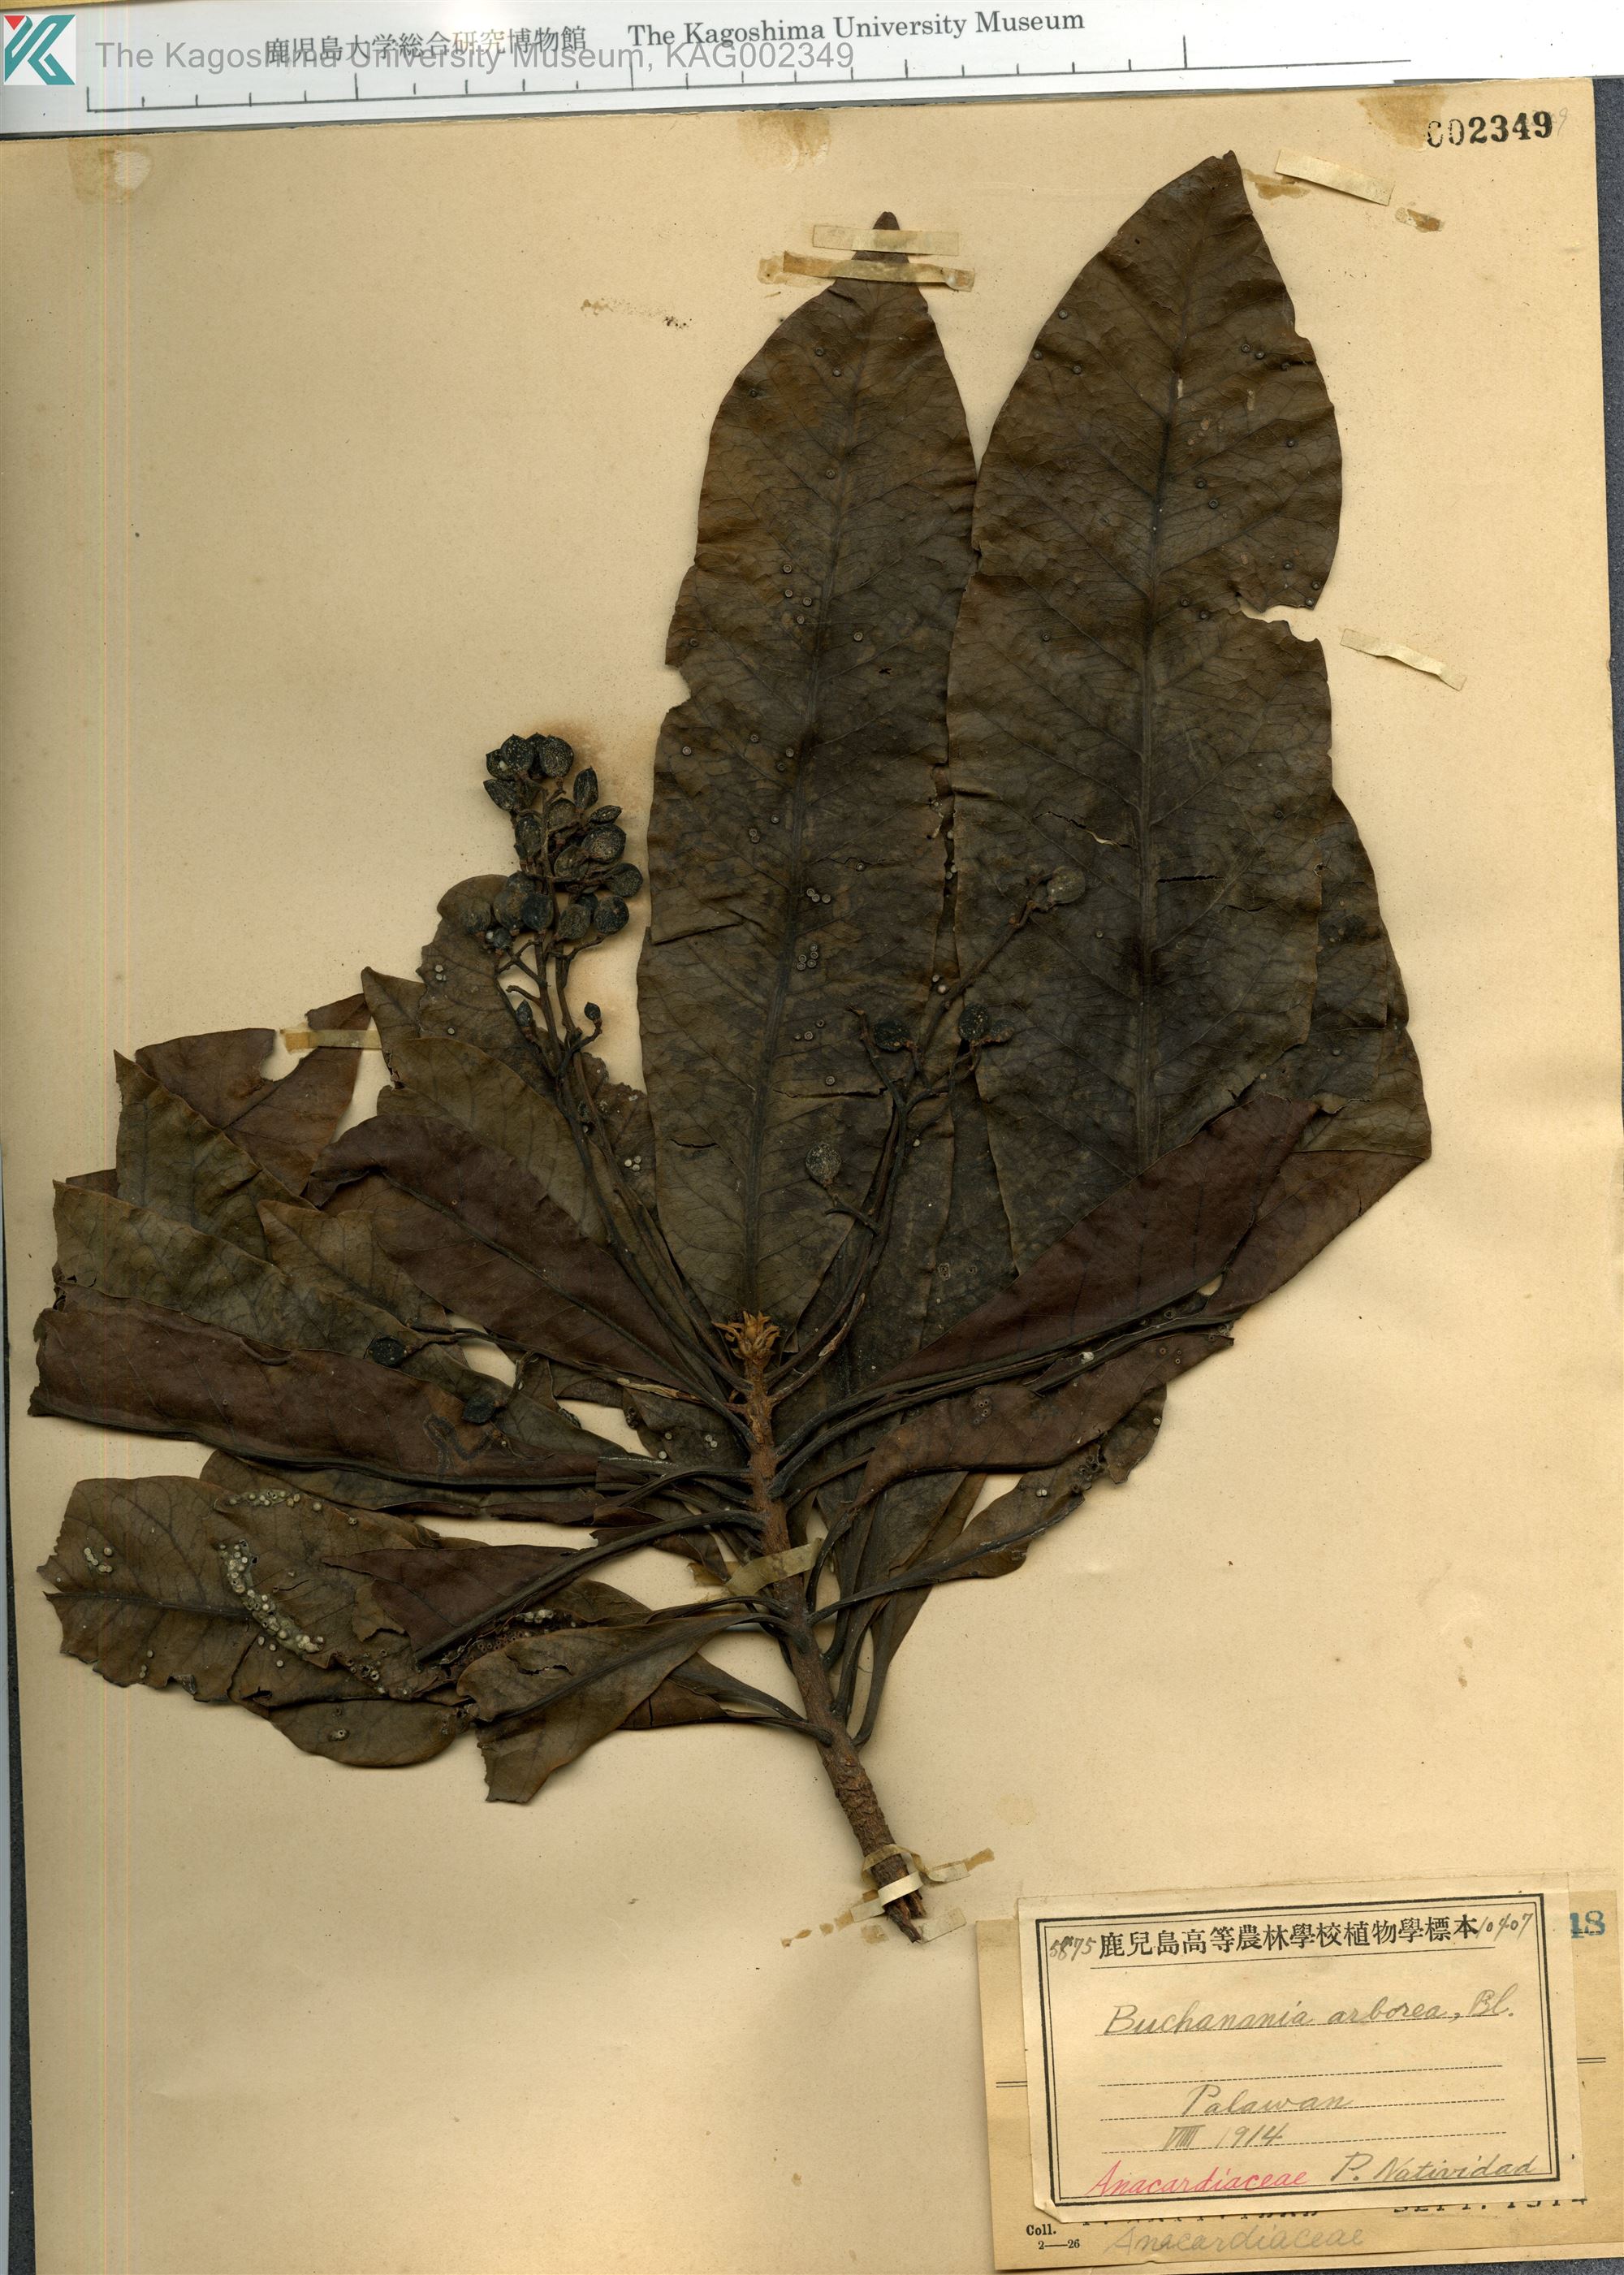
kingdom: Plantae
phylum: Tracheophyta
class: Magnoliopsida
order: Sapindales
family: Anacardiaceae
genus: Buchanania
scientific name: Buchanania arborescens
